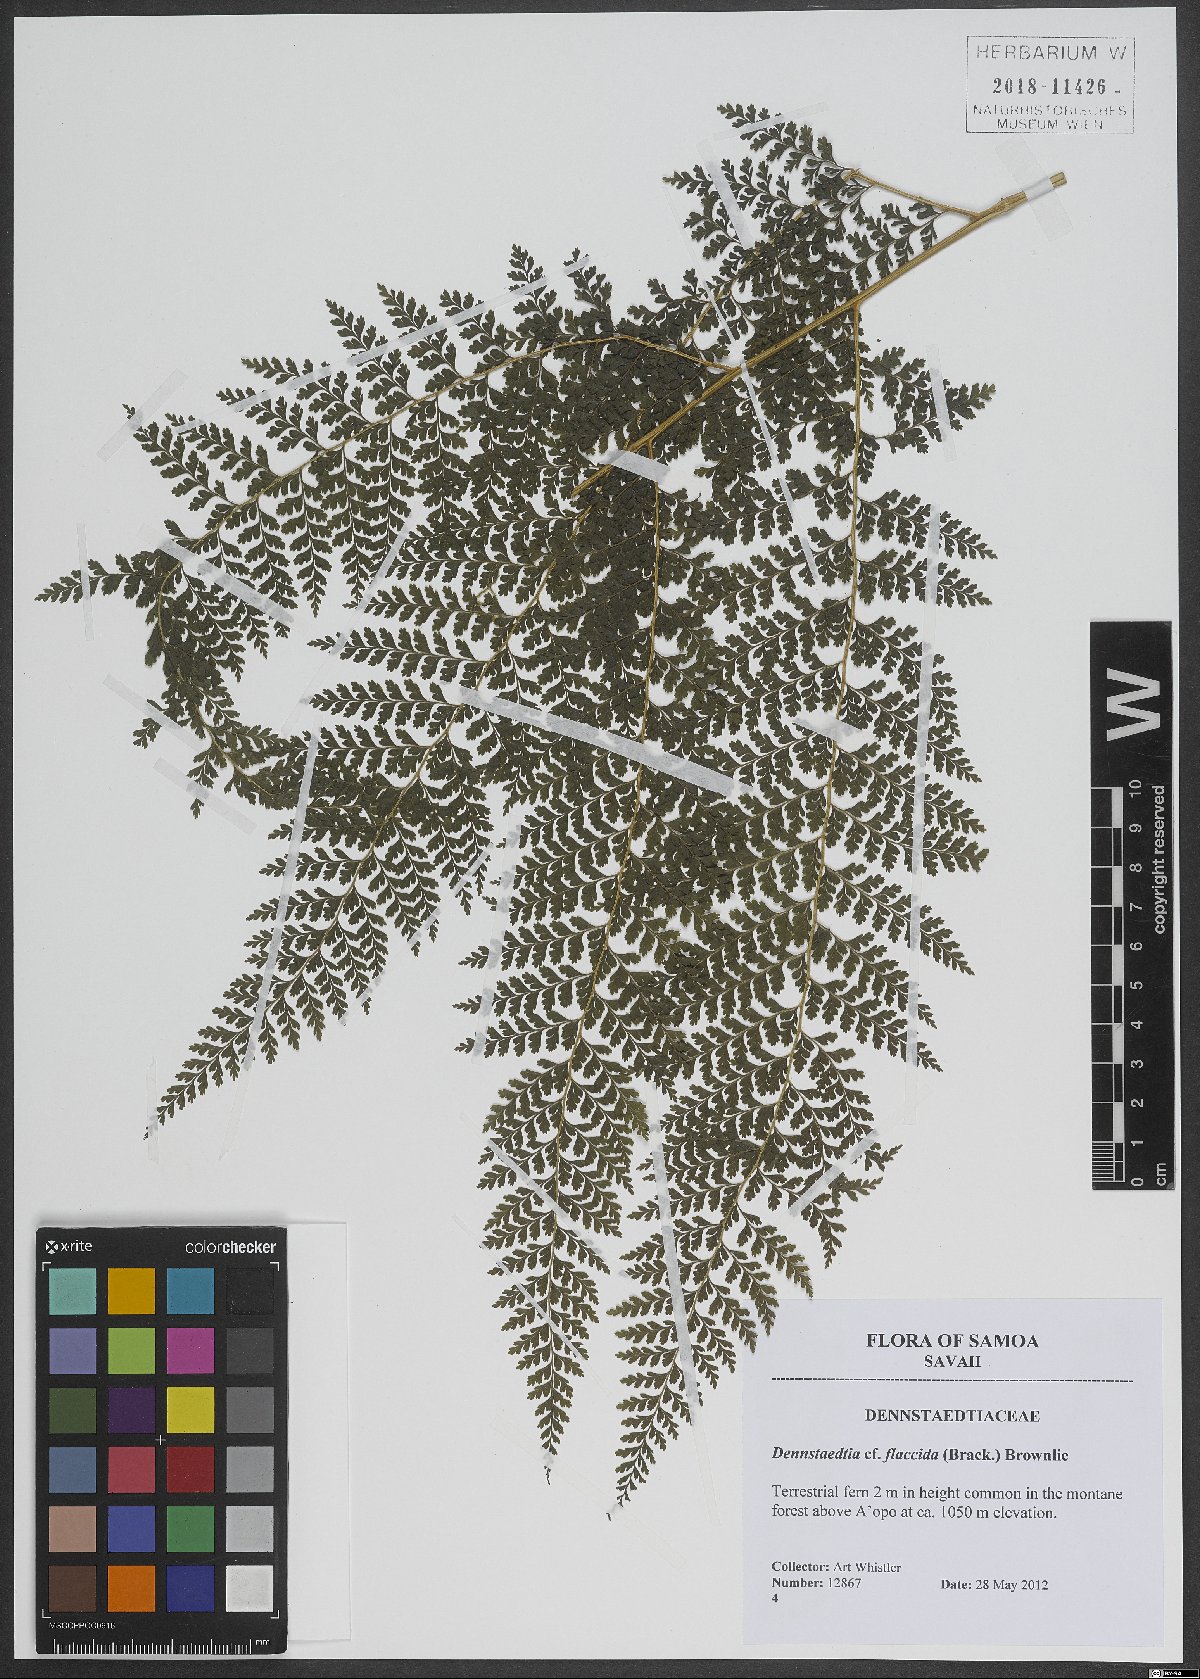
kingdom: Plantae
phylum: Tracheophyta
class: Polypodiopsida
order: Polypodiales
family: Dennstaedtiaceae
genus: Dennstaedtia
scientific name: Dennstaedtia flaccida
